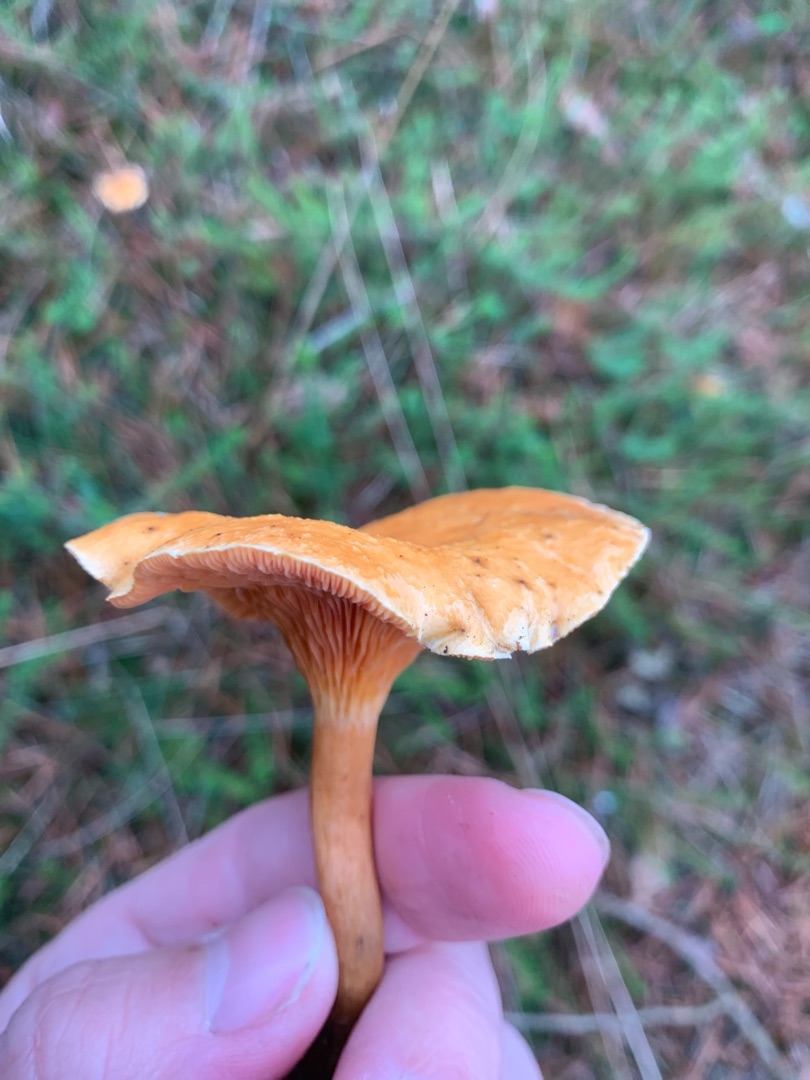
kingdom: Fungi
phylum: Basidiomycota
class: Agaricomycetes
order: Boletales
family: Hygrophoropsidaceae
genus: Hygrophoropsis
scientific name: Hygrophoropsis aurantiaca
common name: Almindelig orangekantarel
